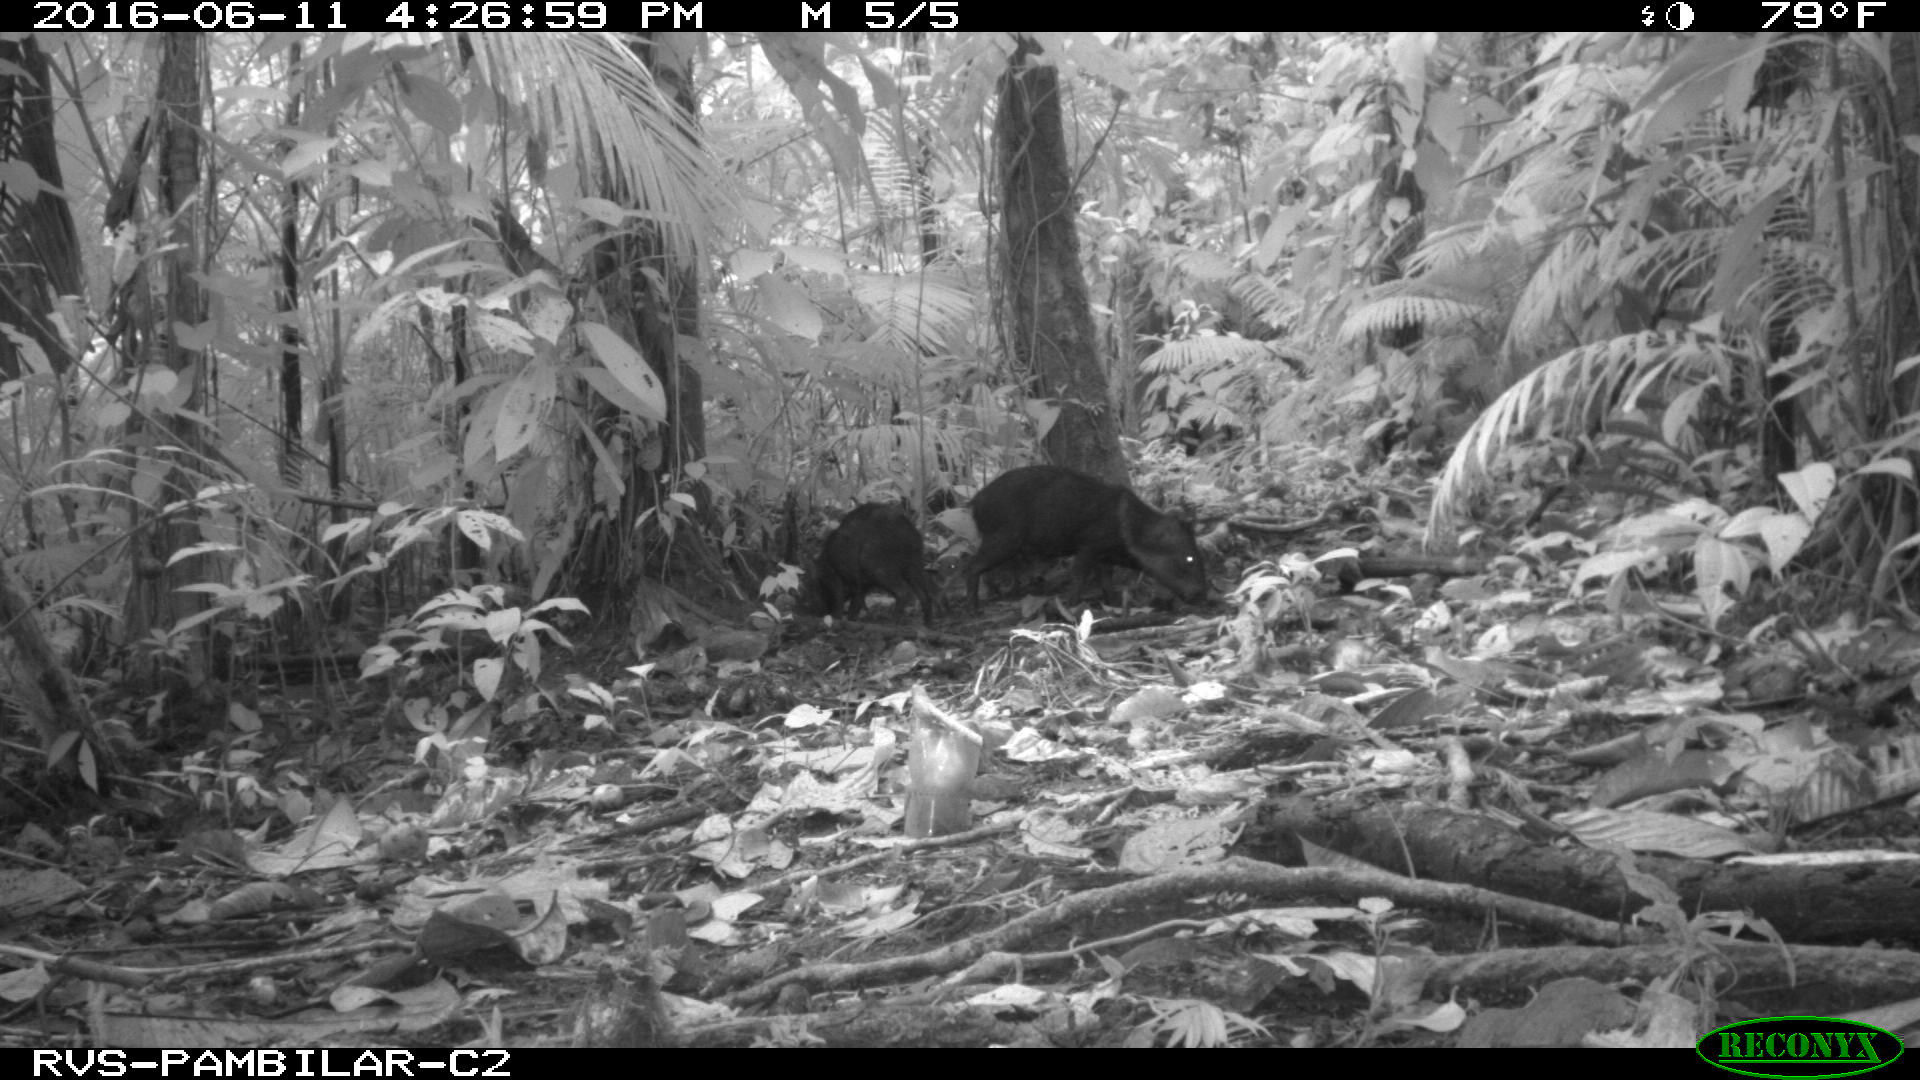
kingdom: Animalia
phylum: Chordata
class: Mammalia
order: Artiodactyla
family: Tayassuidae
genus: Pecari
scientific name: Pecari tajacu
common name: Collared peccary
